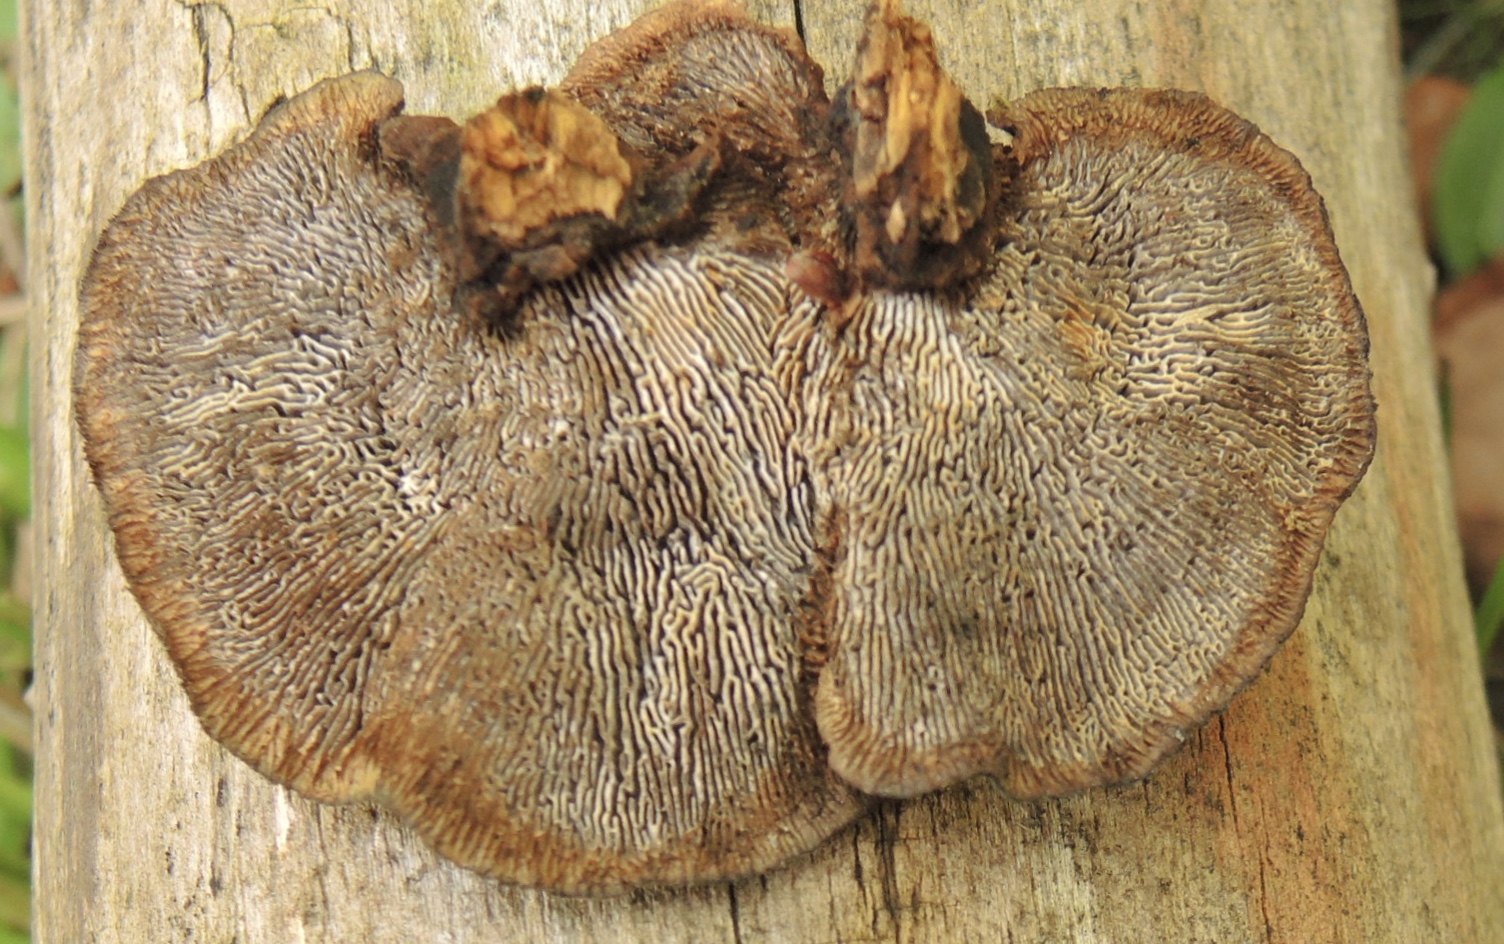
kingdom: Fungi
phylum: Basidiomycota
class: Agaricomycetes
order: Gloeophyllales
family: Gloeophyllaceae
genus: Gloeophyllum
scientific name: Gloeophyllum sepiarium
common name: fyrre-korkhat
